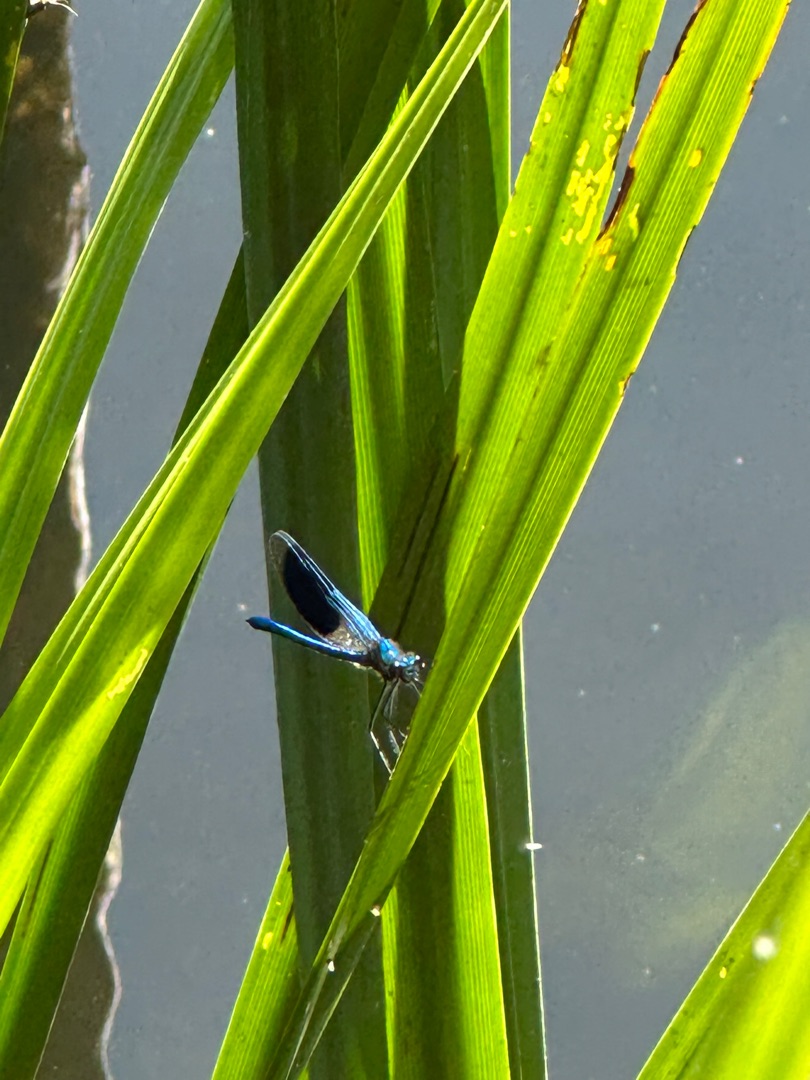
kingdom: Animalia
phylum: Arthropoda
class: Insecta
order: Odonata
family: Calopterygidae
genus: Calopteryx
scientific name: Calopteryx splendens
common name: Blåbåndet pragtvandnymfe
